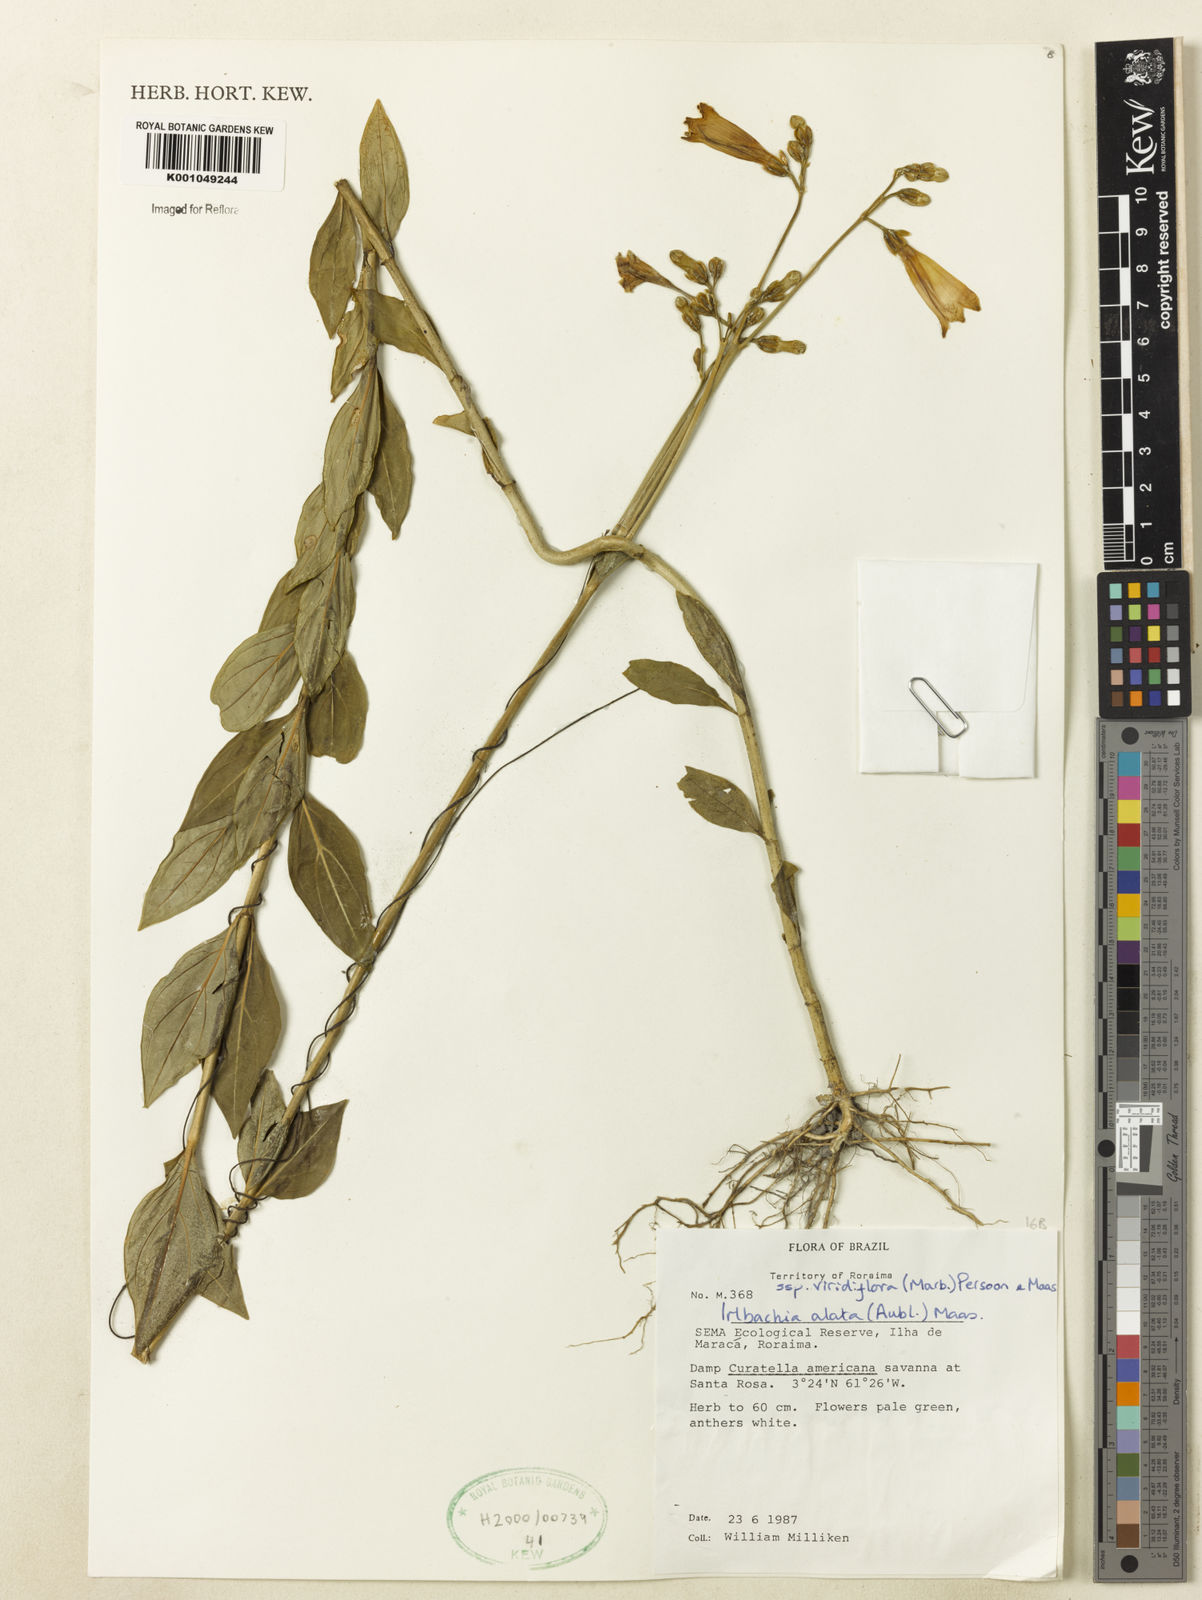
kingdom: Plantae
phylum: Tracheophyta
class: Magnoliopsida
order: Gentianales
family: Gentianaceae
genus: Chelonanthus
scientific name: Chelonanthus viridiflorus
